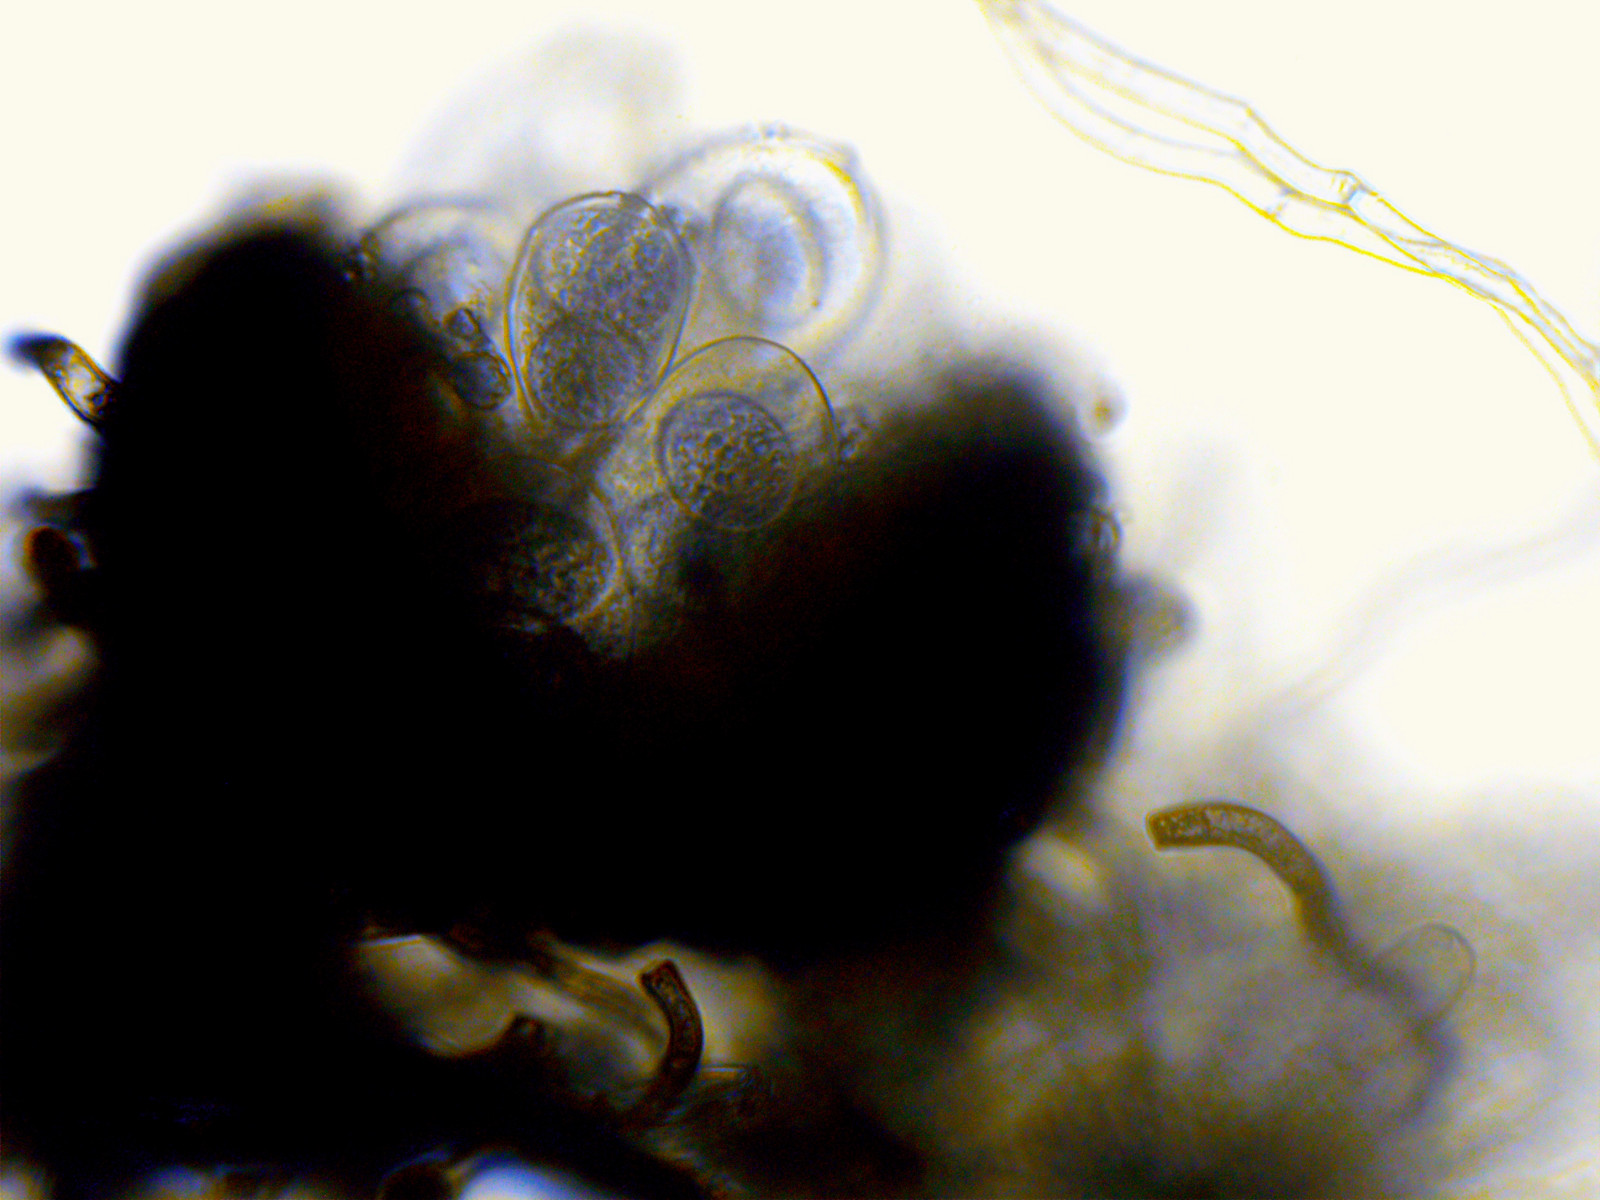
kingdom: Fungi
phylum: Ascomycota
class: Leotiomycetes
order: Helotiales
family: Erysiphaceae
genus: Golovinomyces
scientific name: Golovinomyces montagnei
